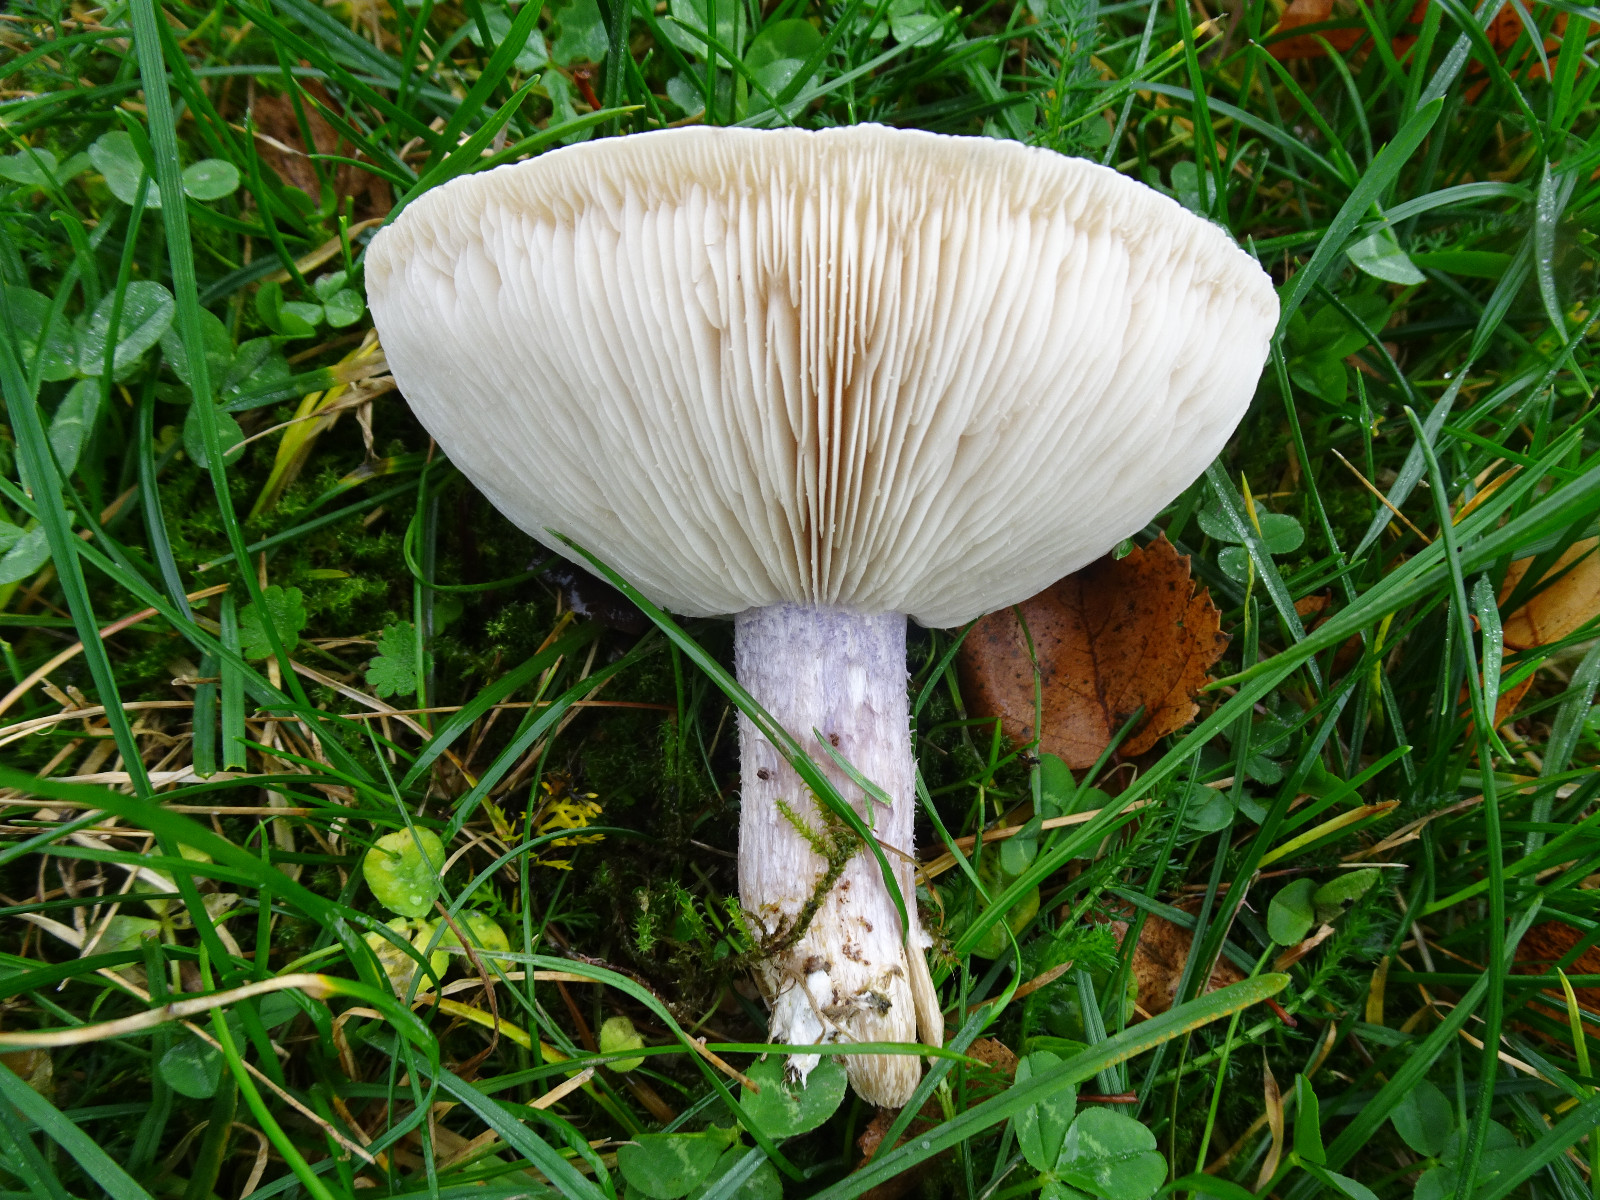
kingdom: Fungi
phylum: Basidiomycota
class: Agaricomycetes
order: Agaricales
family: Tricholomataceae
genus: Lepista
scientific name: Lepista personata
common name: bleg hekseringshat
